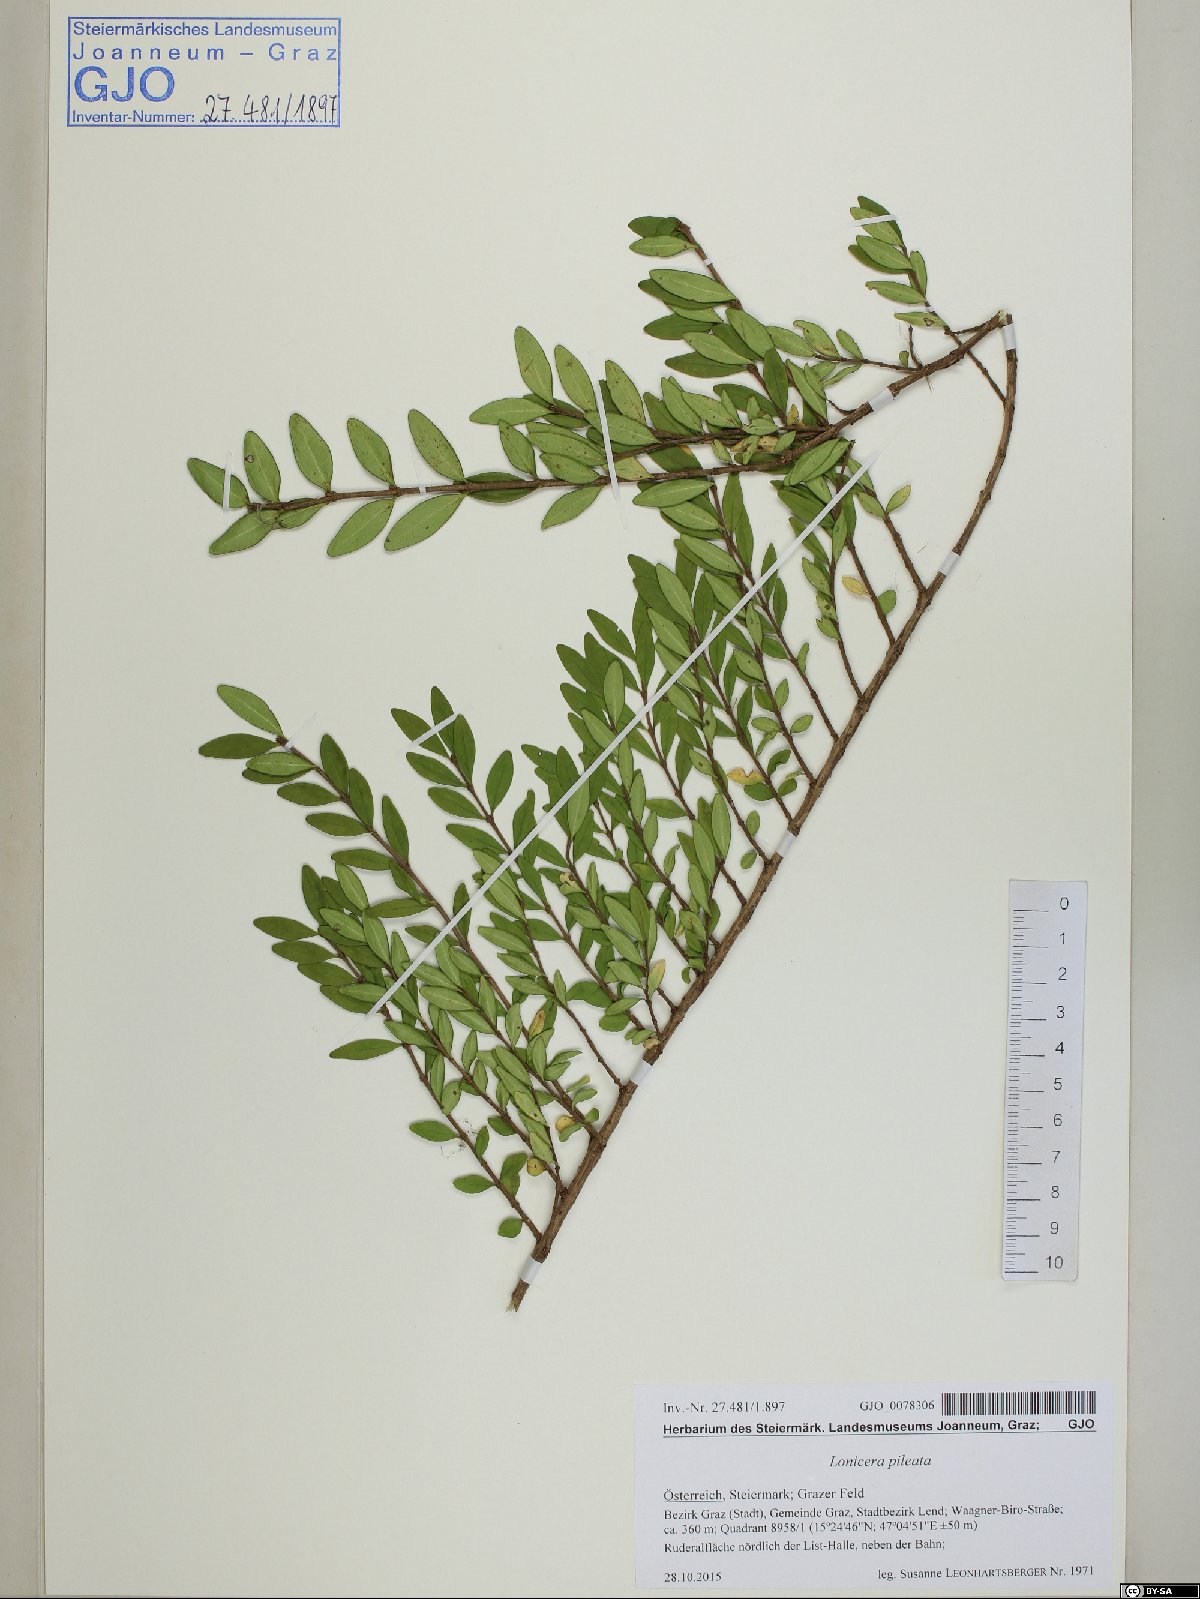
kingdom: Plantae
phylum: Tracheophyta
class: Magnoliopsida
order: Dipsacales
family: Caprifoliaceae
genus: Lonicera
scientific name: Lonicera pileata
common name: Box-leaved honeysuckle
